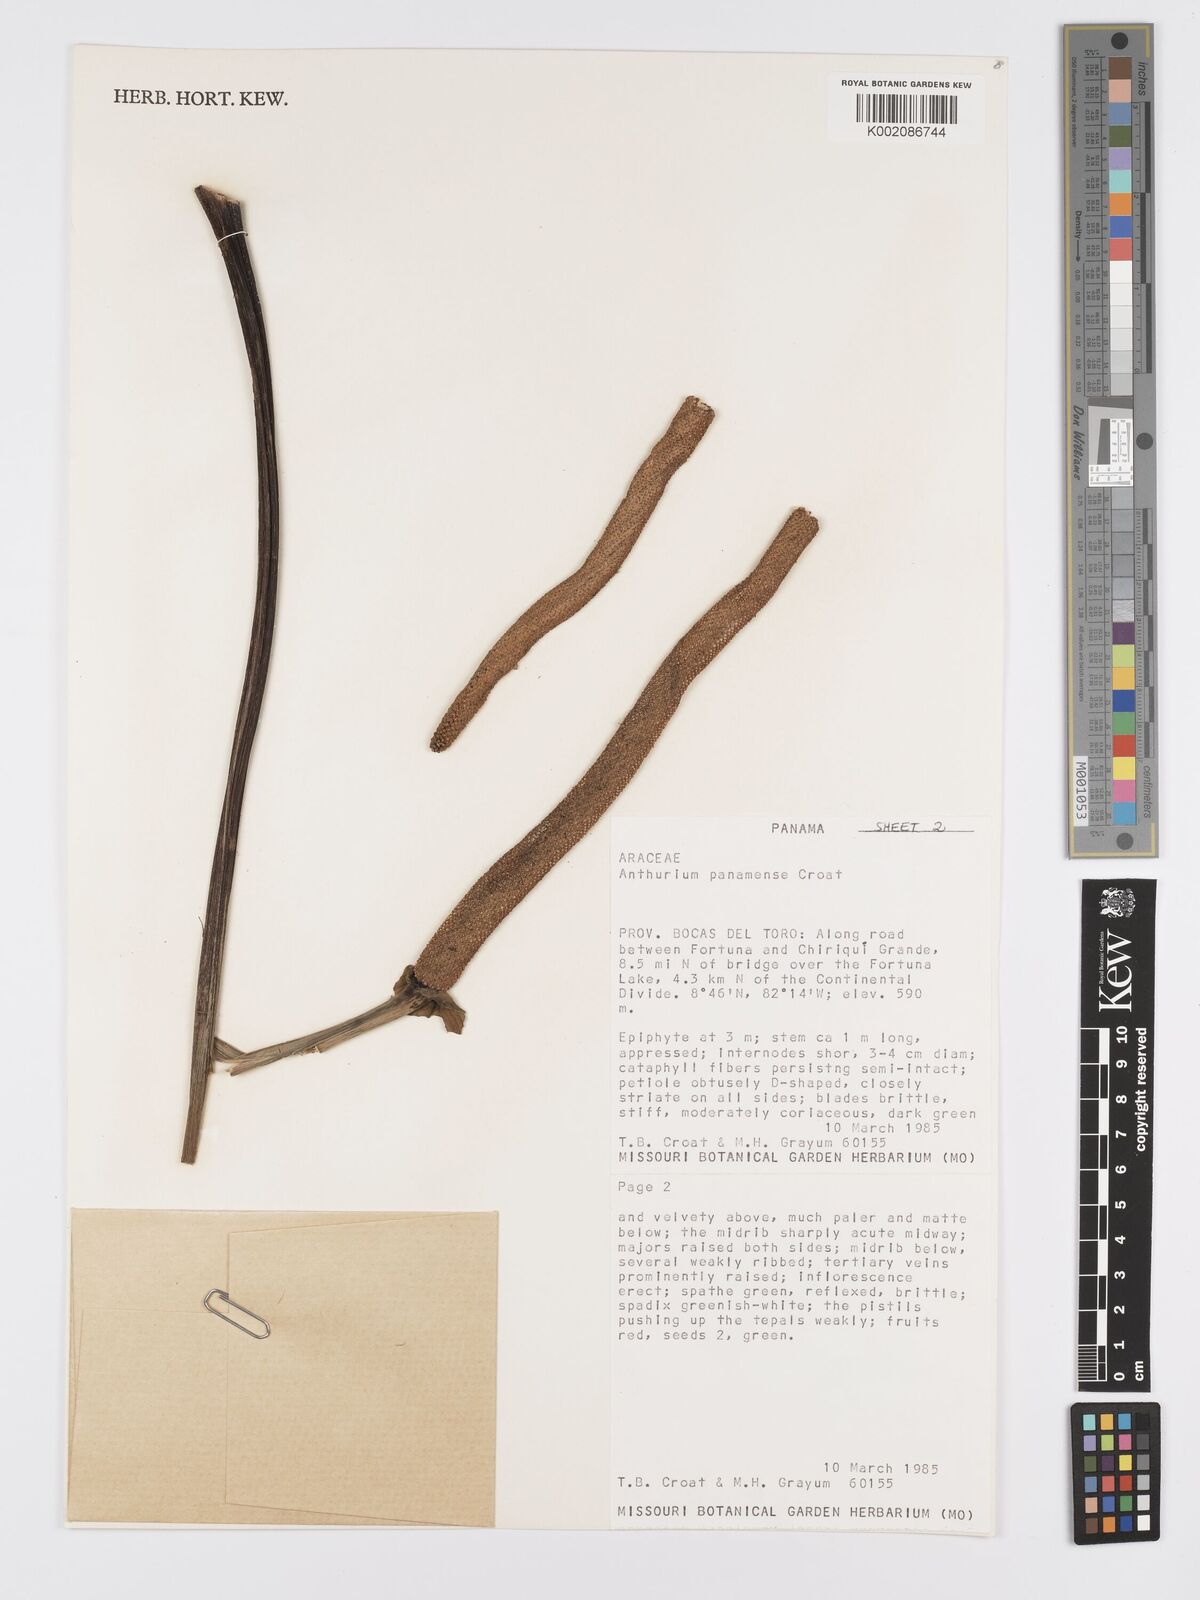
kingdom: Plantae
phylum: Tracheophyta
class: Liliopsida
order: Alismatales
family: Araceae
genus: Anthurium
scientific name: Anthurium panamense
